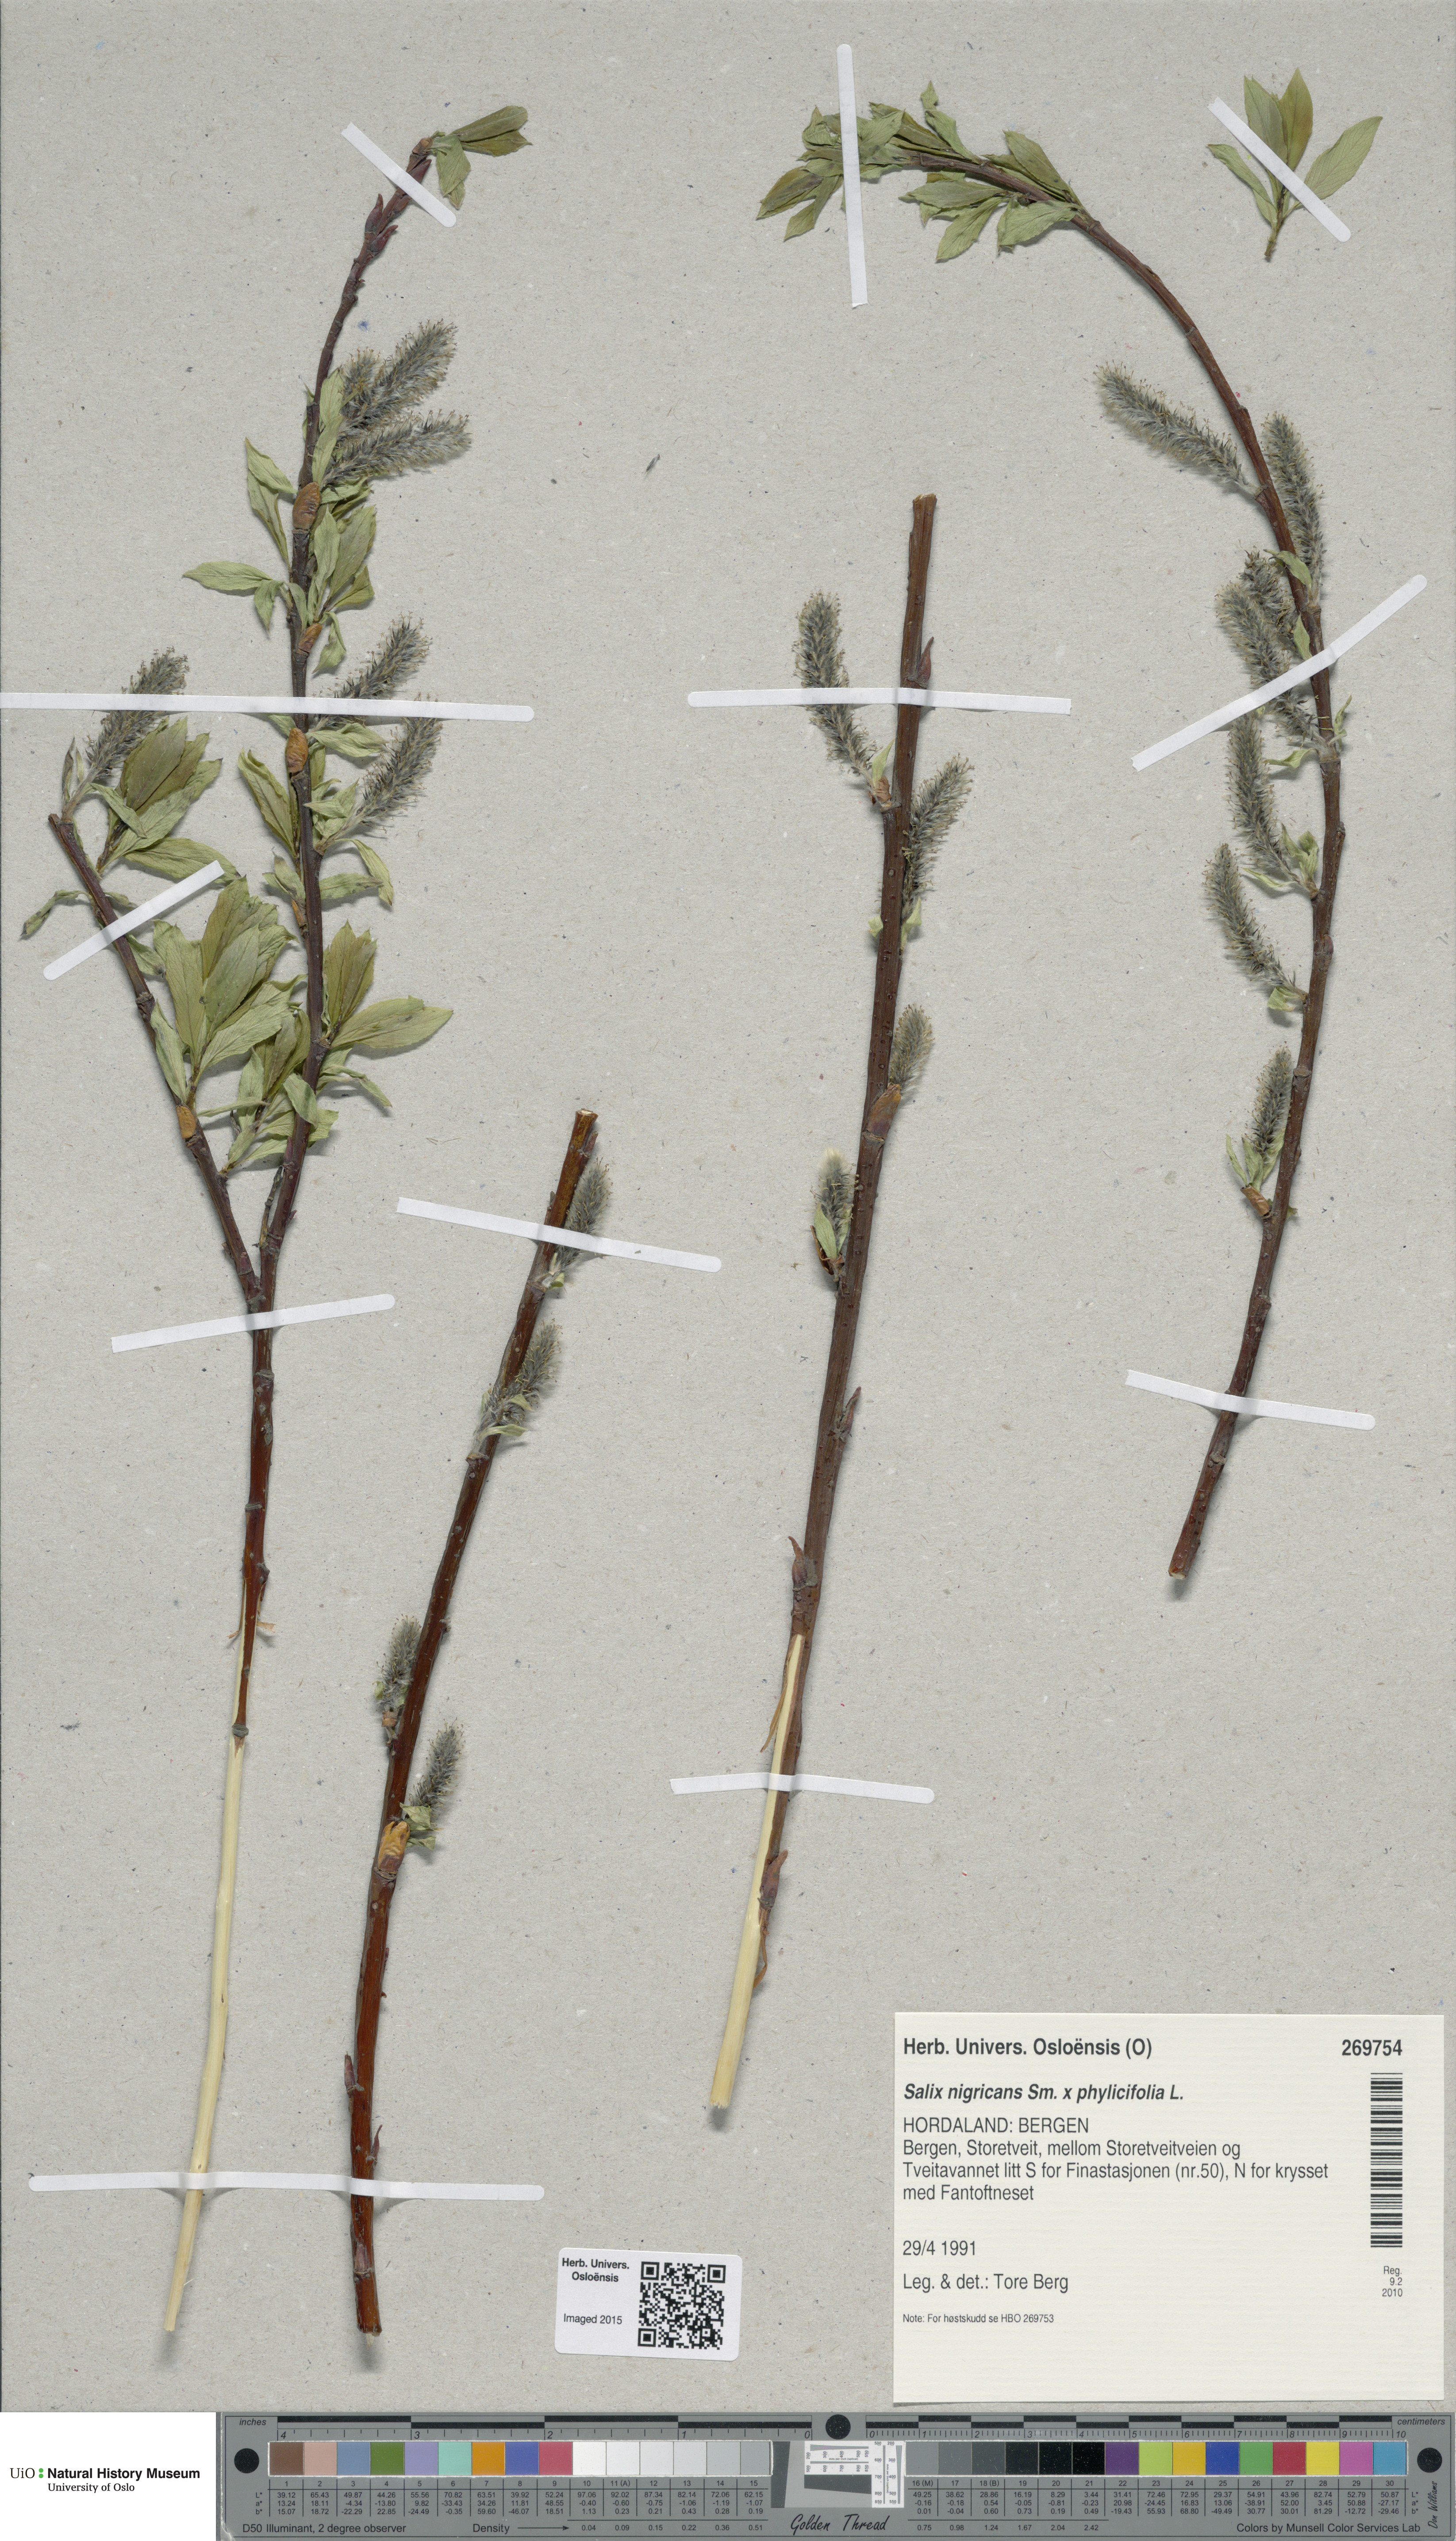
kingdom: Plantae
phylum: Tracheophyta
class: Magnoliopsida
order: Malpighiales
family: Salicaceae
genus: Salix
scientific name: Salix
